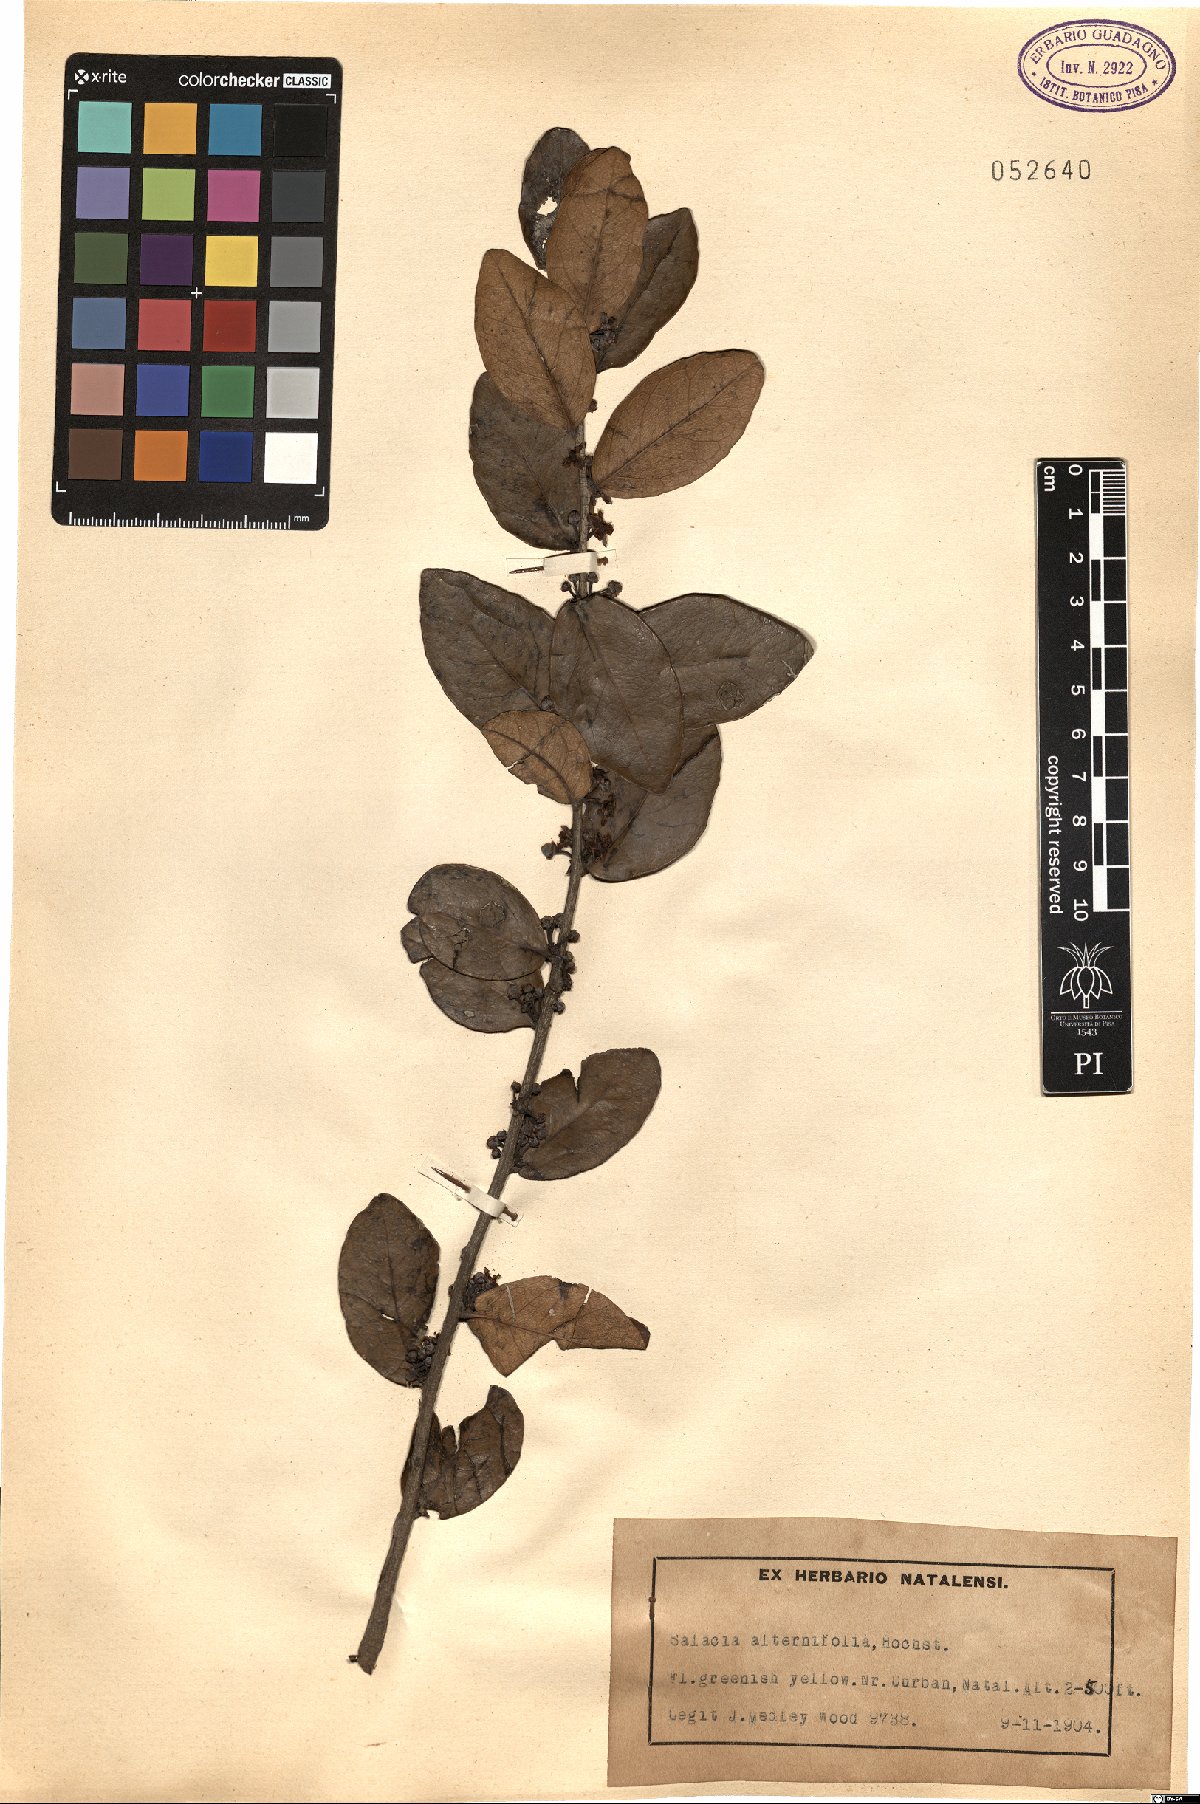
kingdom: Plantae
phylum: Tracheophyta
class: Magnoliopsida
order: Celastrales
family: Celastraceae
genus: Salacia
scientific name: Salacia kraussii
